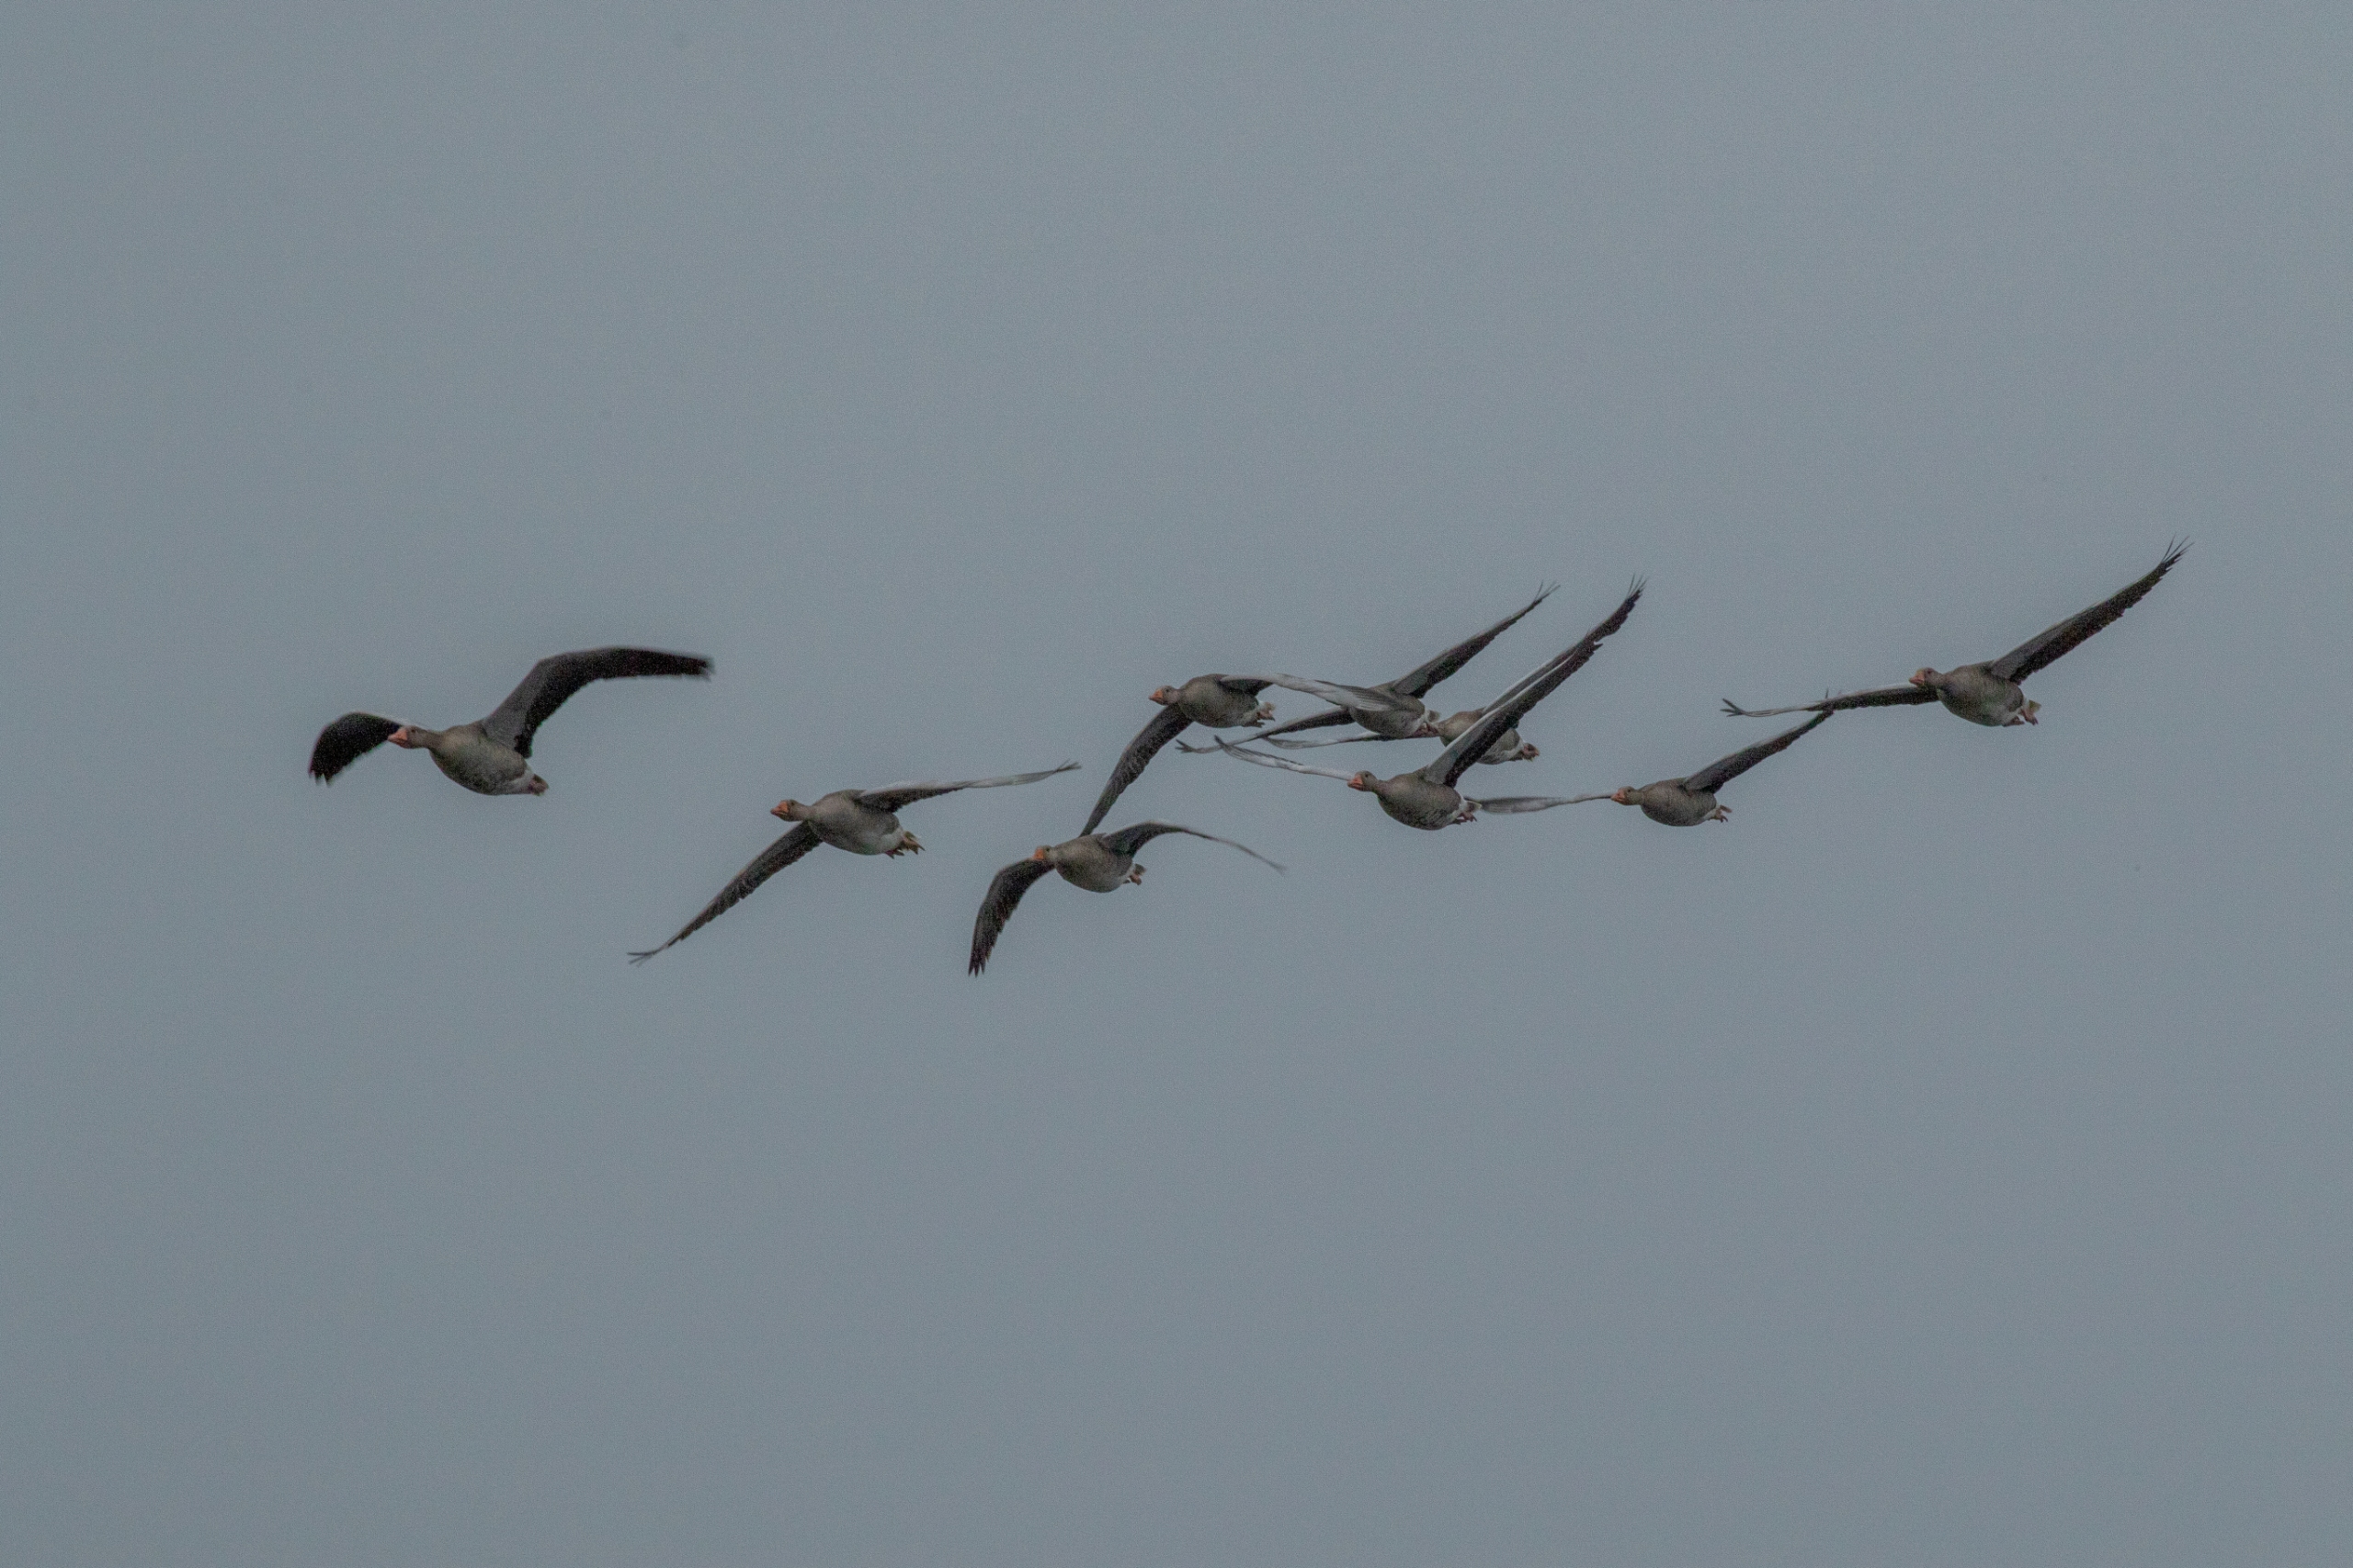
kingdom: Animalia
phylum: Chordata
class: Aves
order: Anseriformes
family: Anatidae
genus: Anser
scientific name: Anser anser
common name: Grågås
